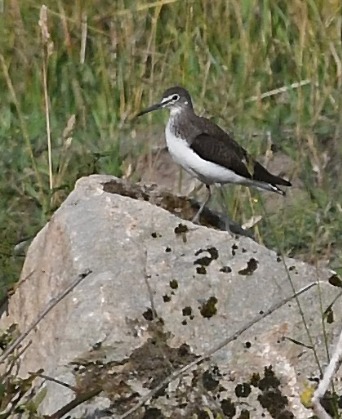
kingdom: Animalia
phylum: Chordata
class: Aves
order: Charadriiformes
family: Scolopacidae
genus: Tringa
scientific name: Tringa ochropus
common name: Svaleklire
